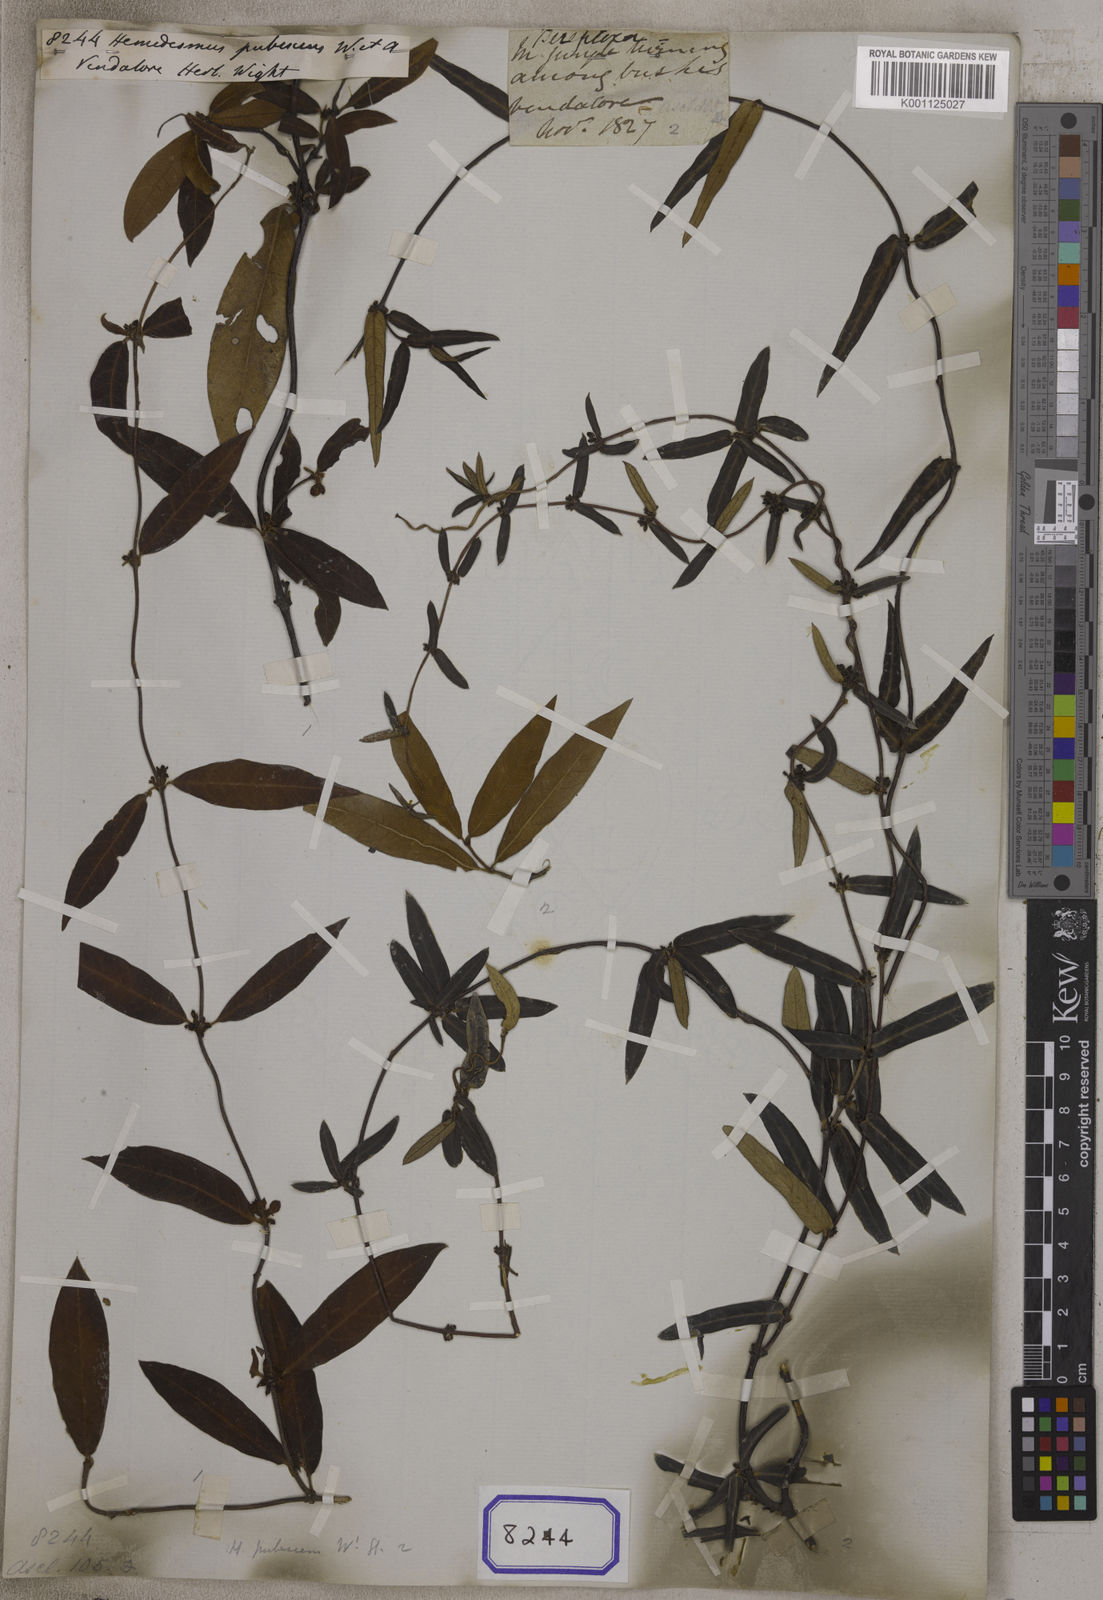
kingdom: Plantae
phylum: Tracheophyta
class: Magnoliopsida
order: Gentianales
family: Apocynaceae
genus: Hemidesmus
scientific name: Hemidesmus indicus
